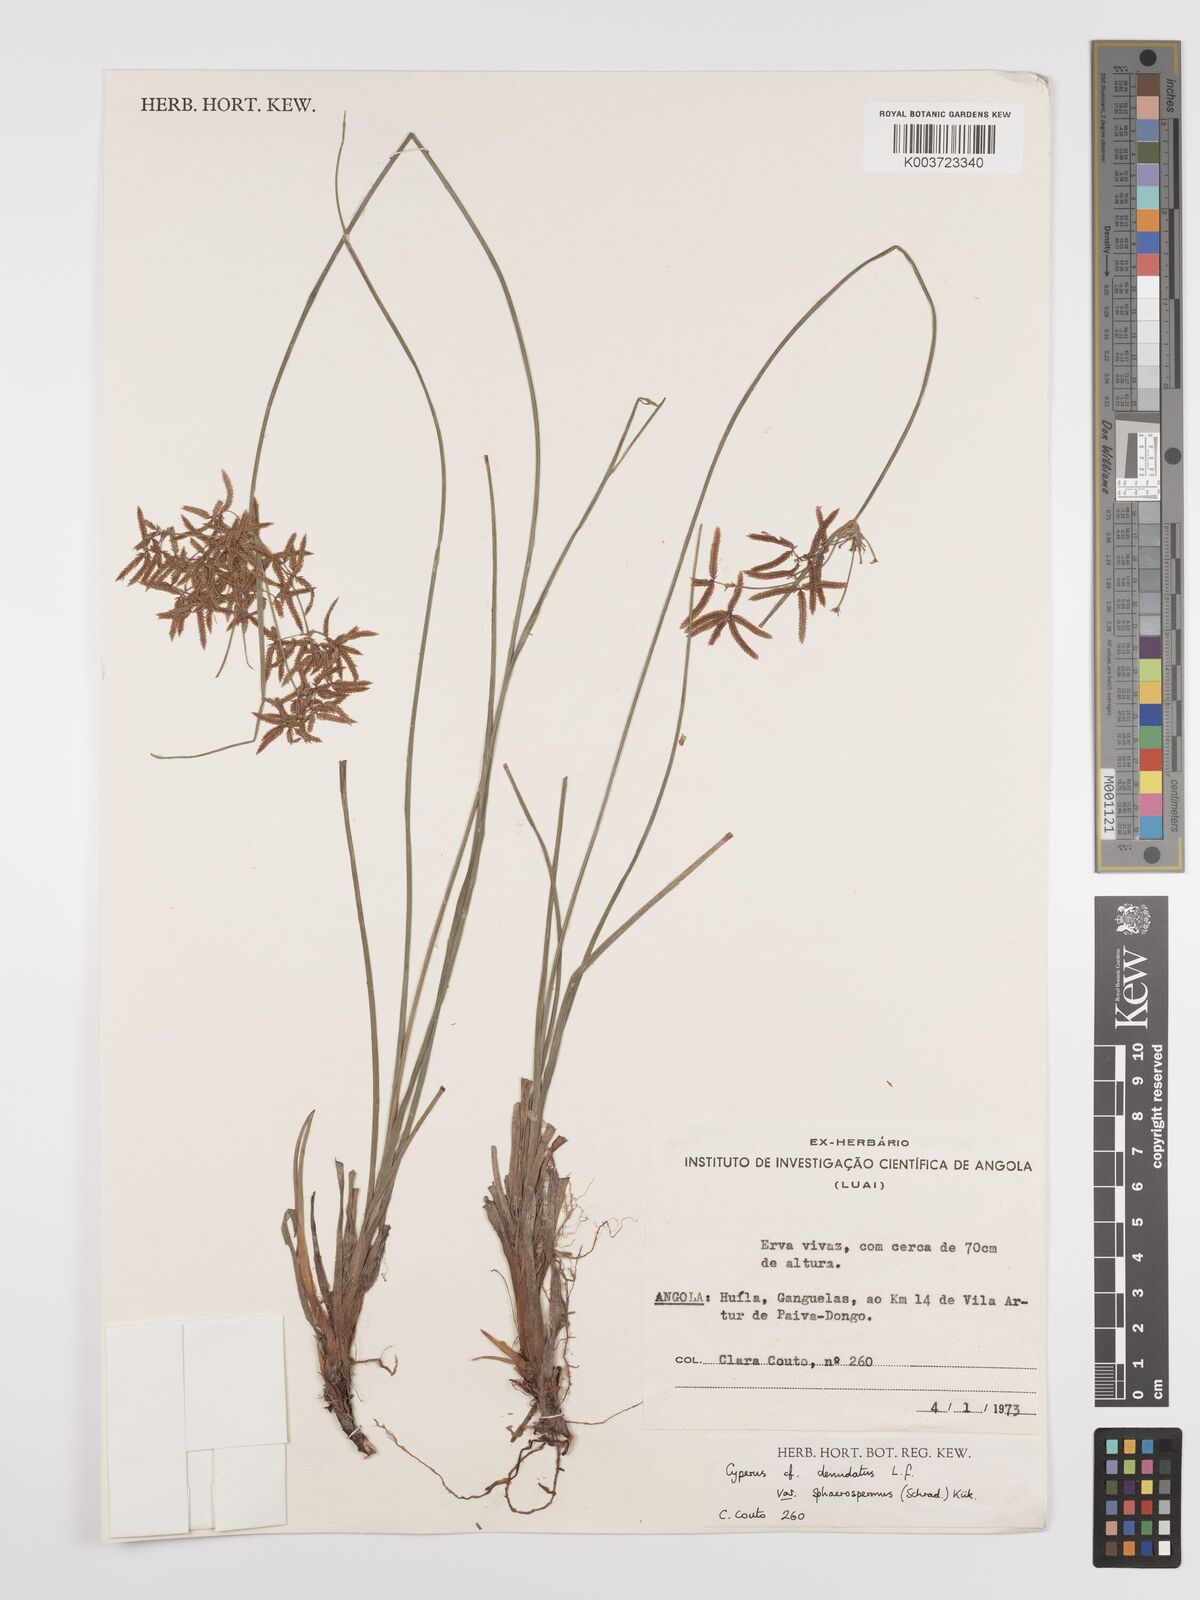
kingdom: Plantae
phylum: Tracheophyta
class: Liliopsida
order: Poales
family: Cyperaceae
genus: Cyperus
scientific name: Cyperus denudatus
